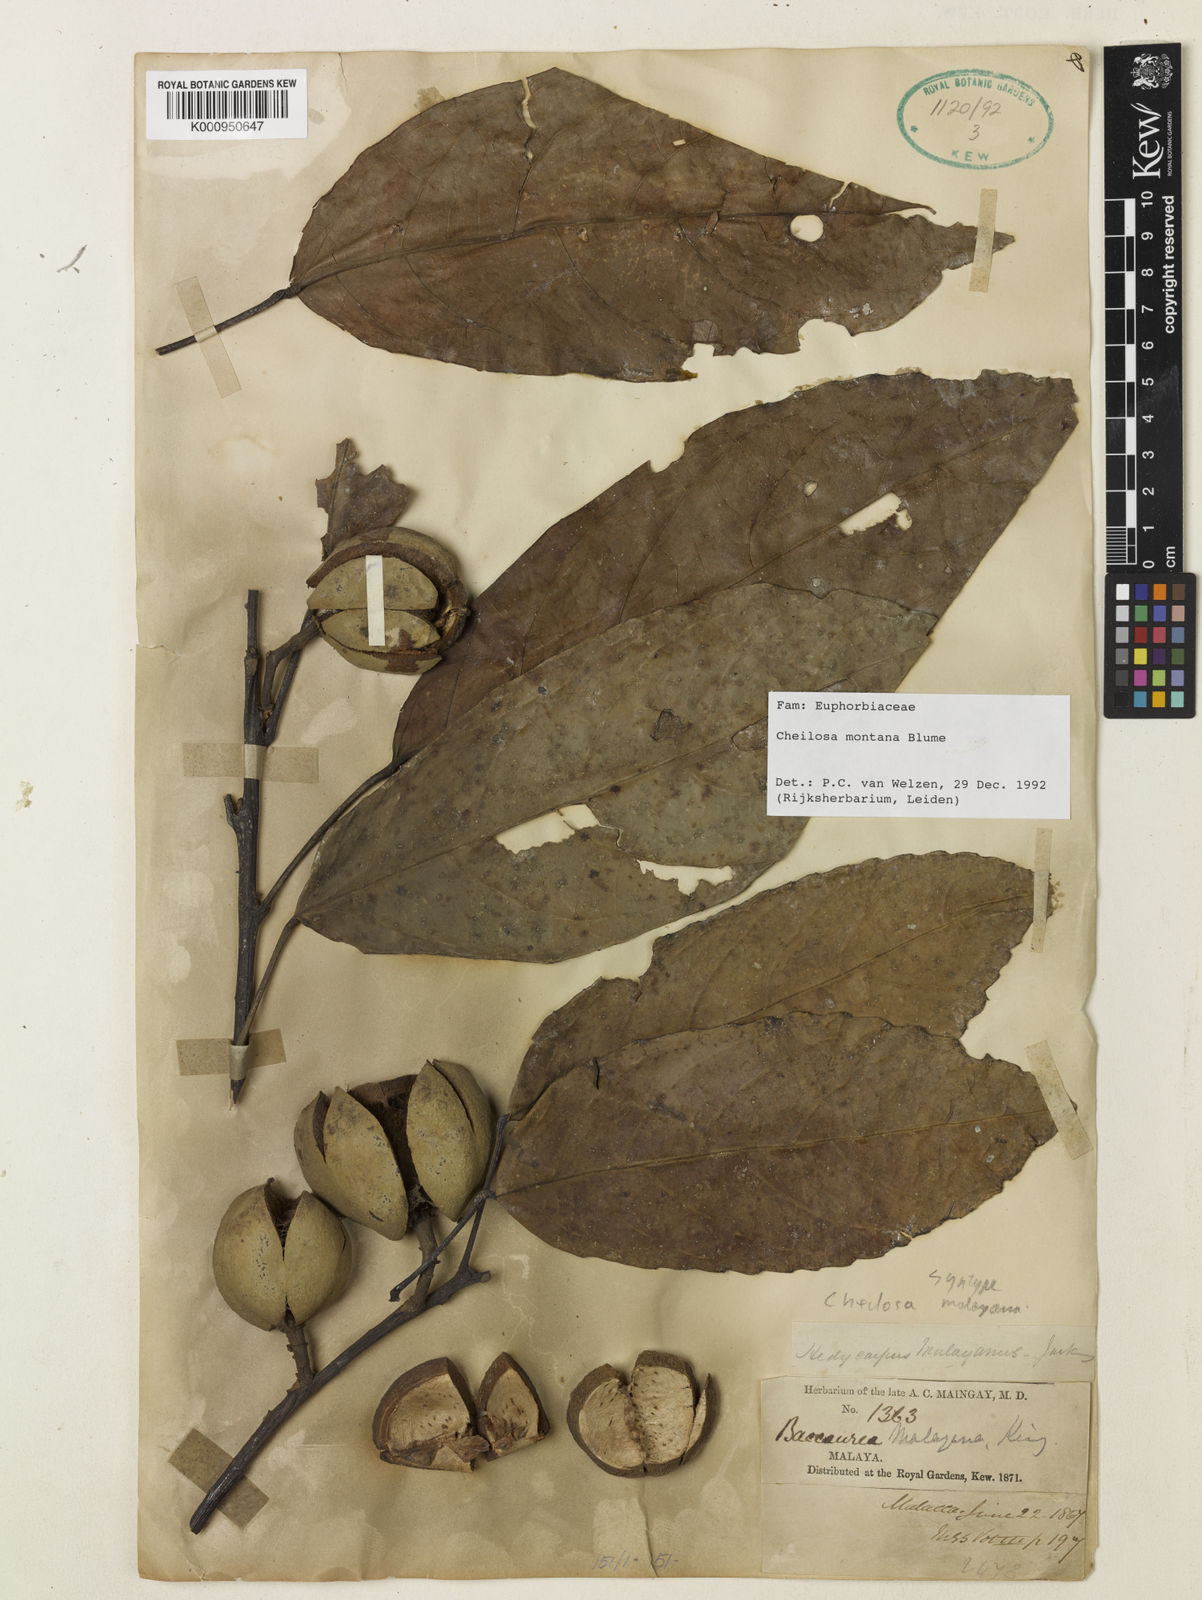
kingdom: Plantae
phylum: Tracheophyta
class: Magnoliopsida
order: Malpighiales
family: Euphorbiaceae
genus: Cheilosa
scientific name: Cheilosa montana
